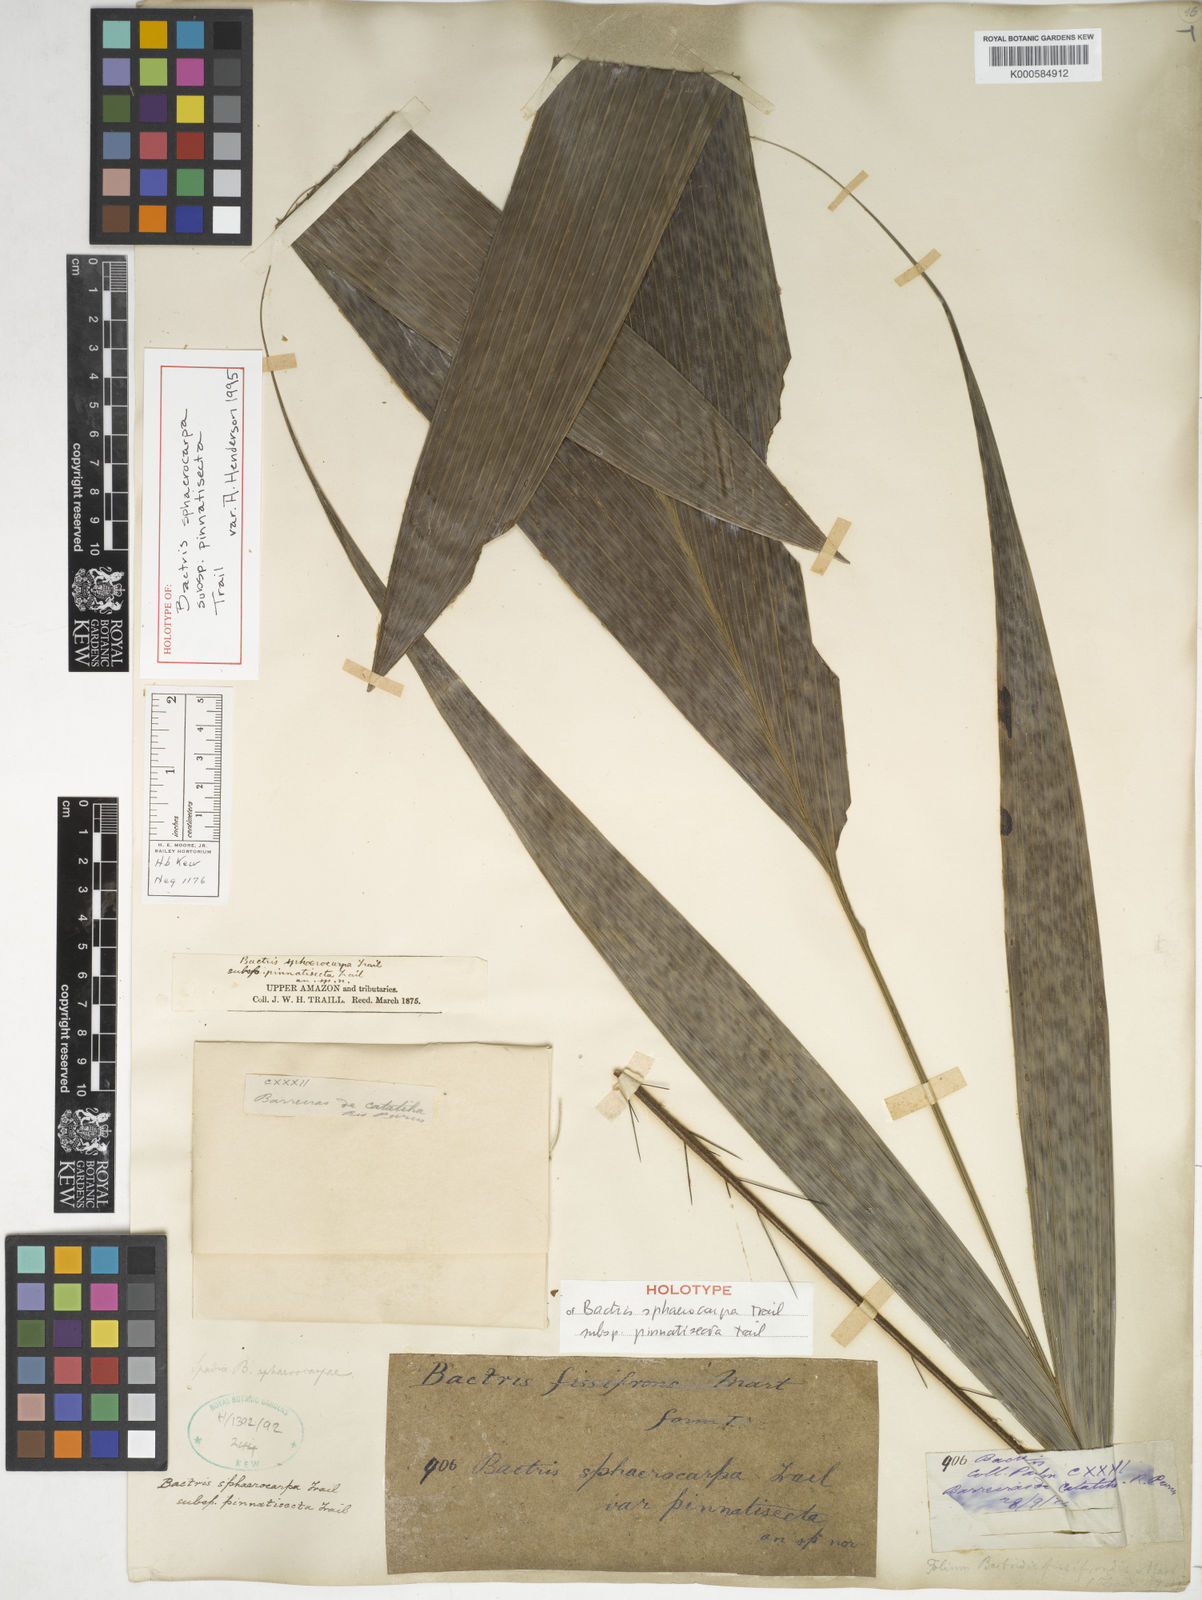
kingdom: Plantae
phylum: Tracheophyta
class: Liliopsida
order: Arecales
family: Arecaceae
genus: Bactris
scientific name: Bactris sphaerocarpa
